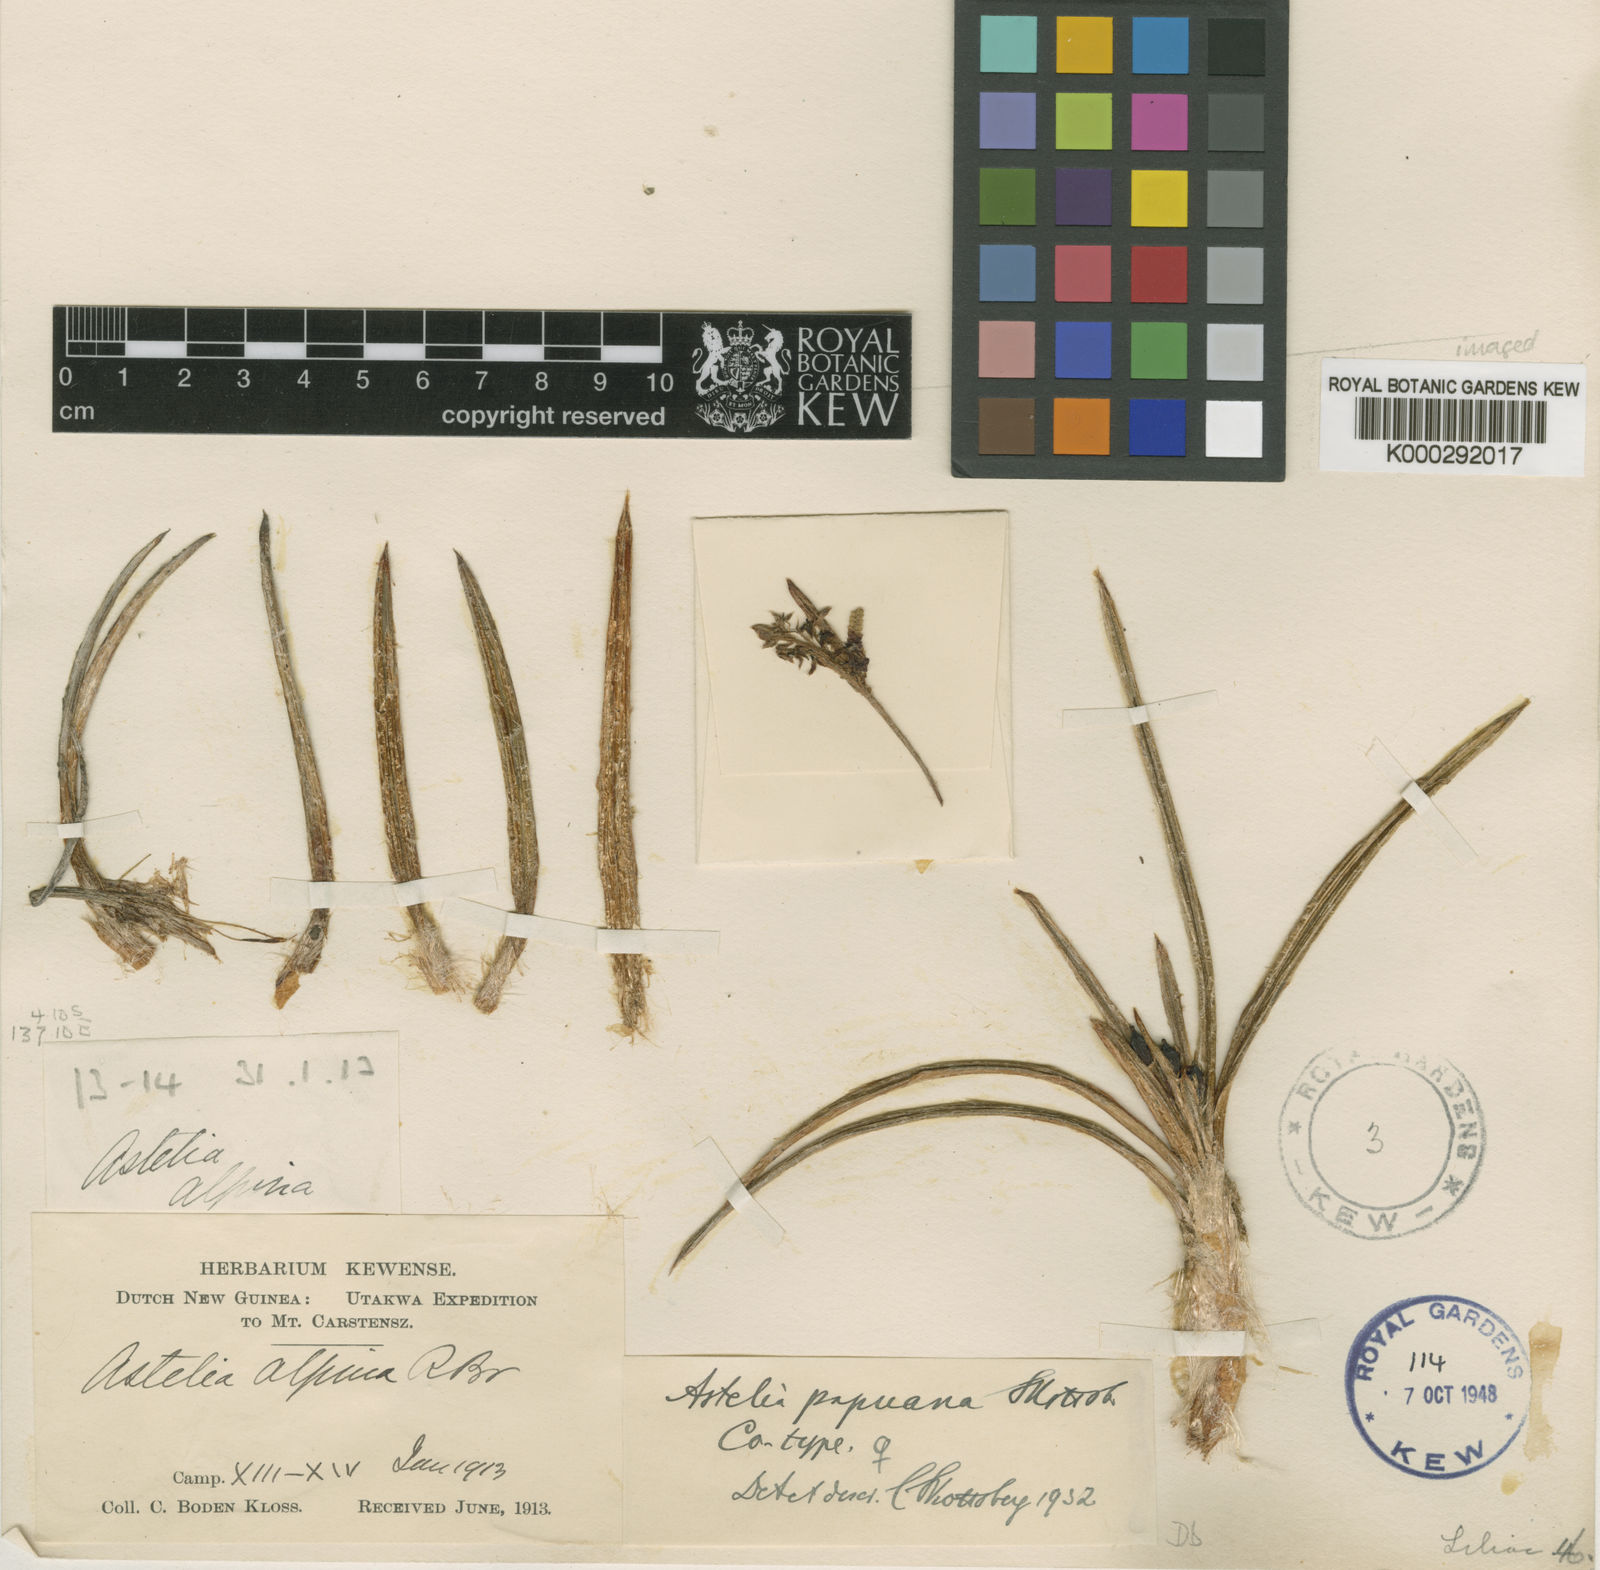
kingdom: Plantae
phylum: Tracheophyta
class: Liliopsida
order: Asparagales
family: Asteliaceae
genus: Astelia
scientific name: Astelia papuana
